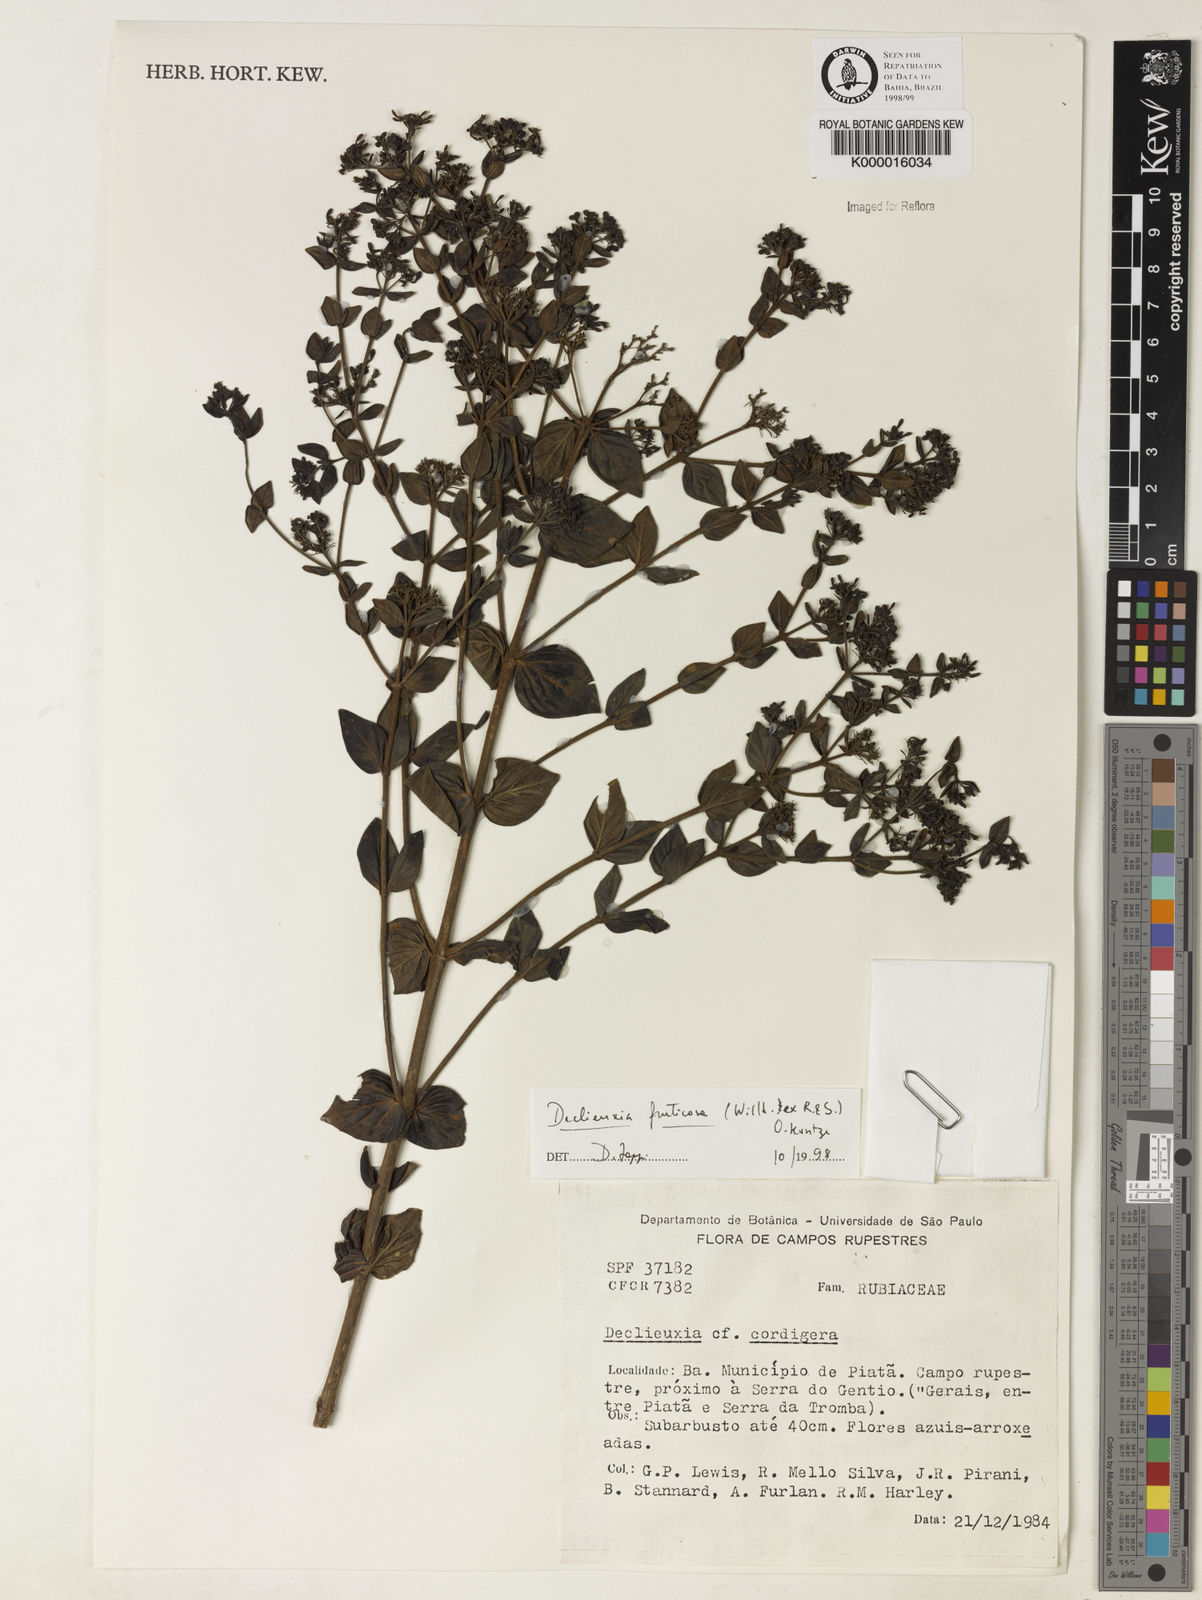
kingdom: Plantae
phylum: Tracheophyta
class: Magnoliopsida
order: Gentianales
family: Rubiaceae
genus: Declieuxia
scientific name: Declieuxia fruticosa
